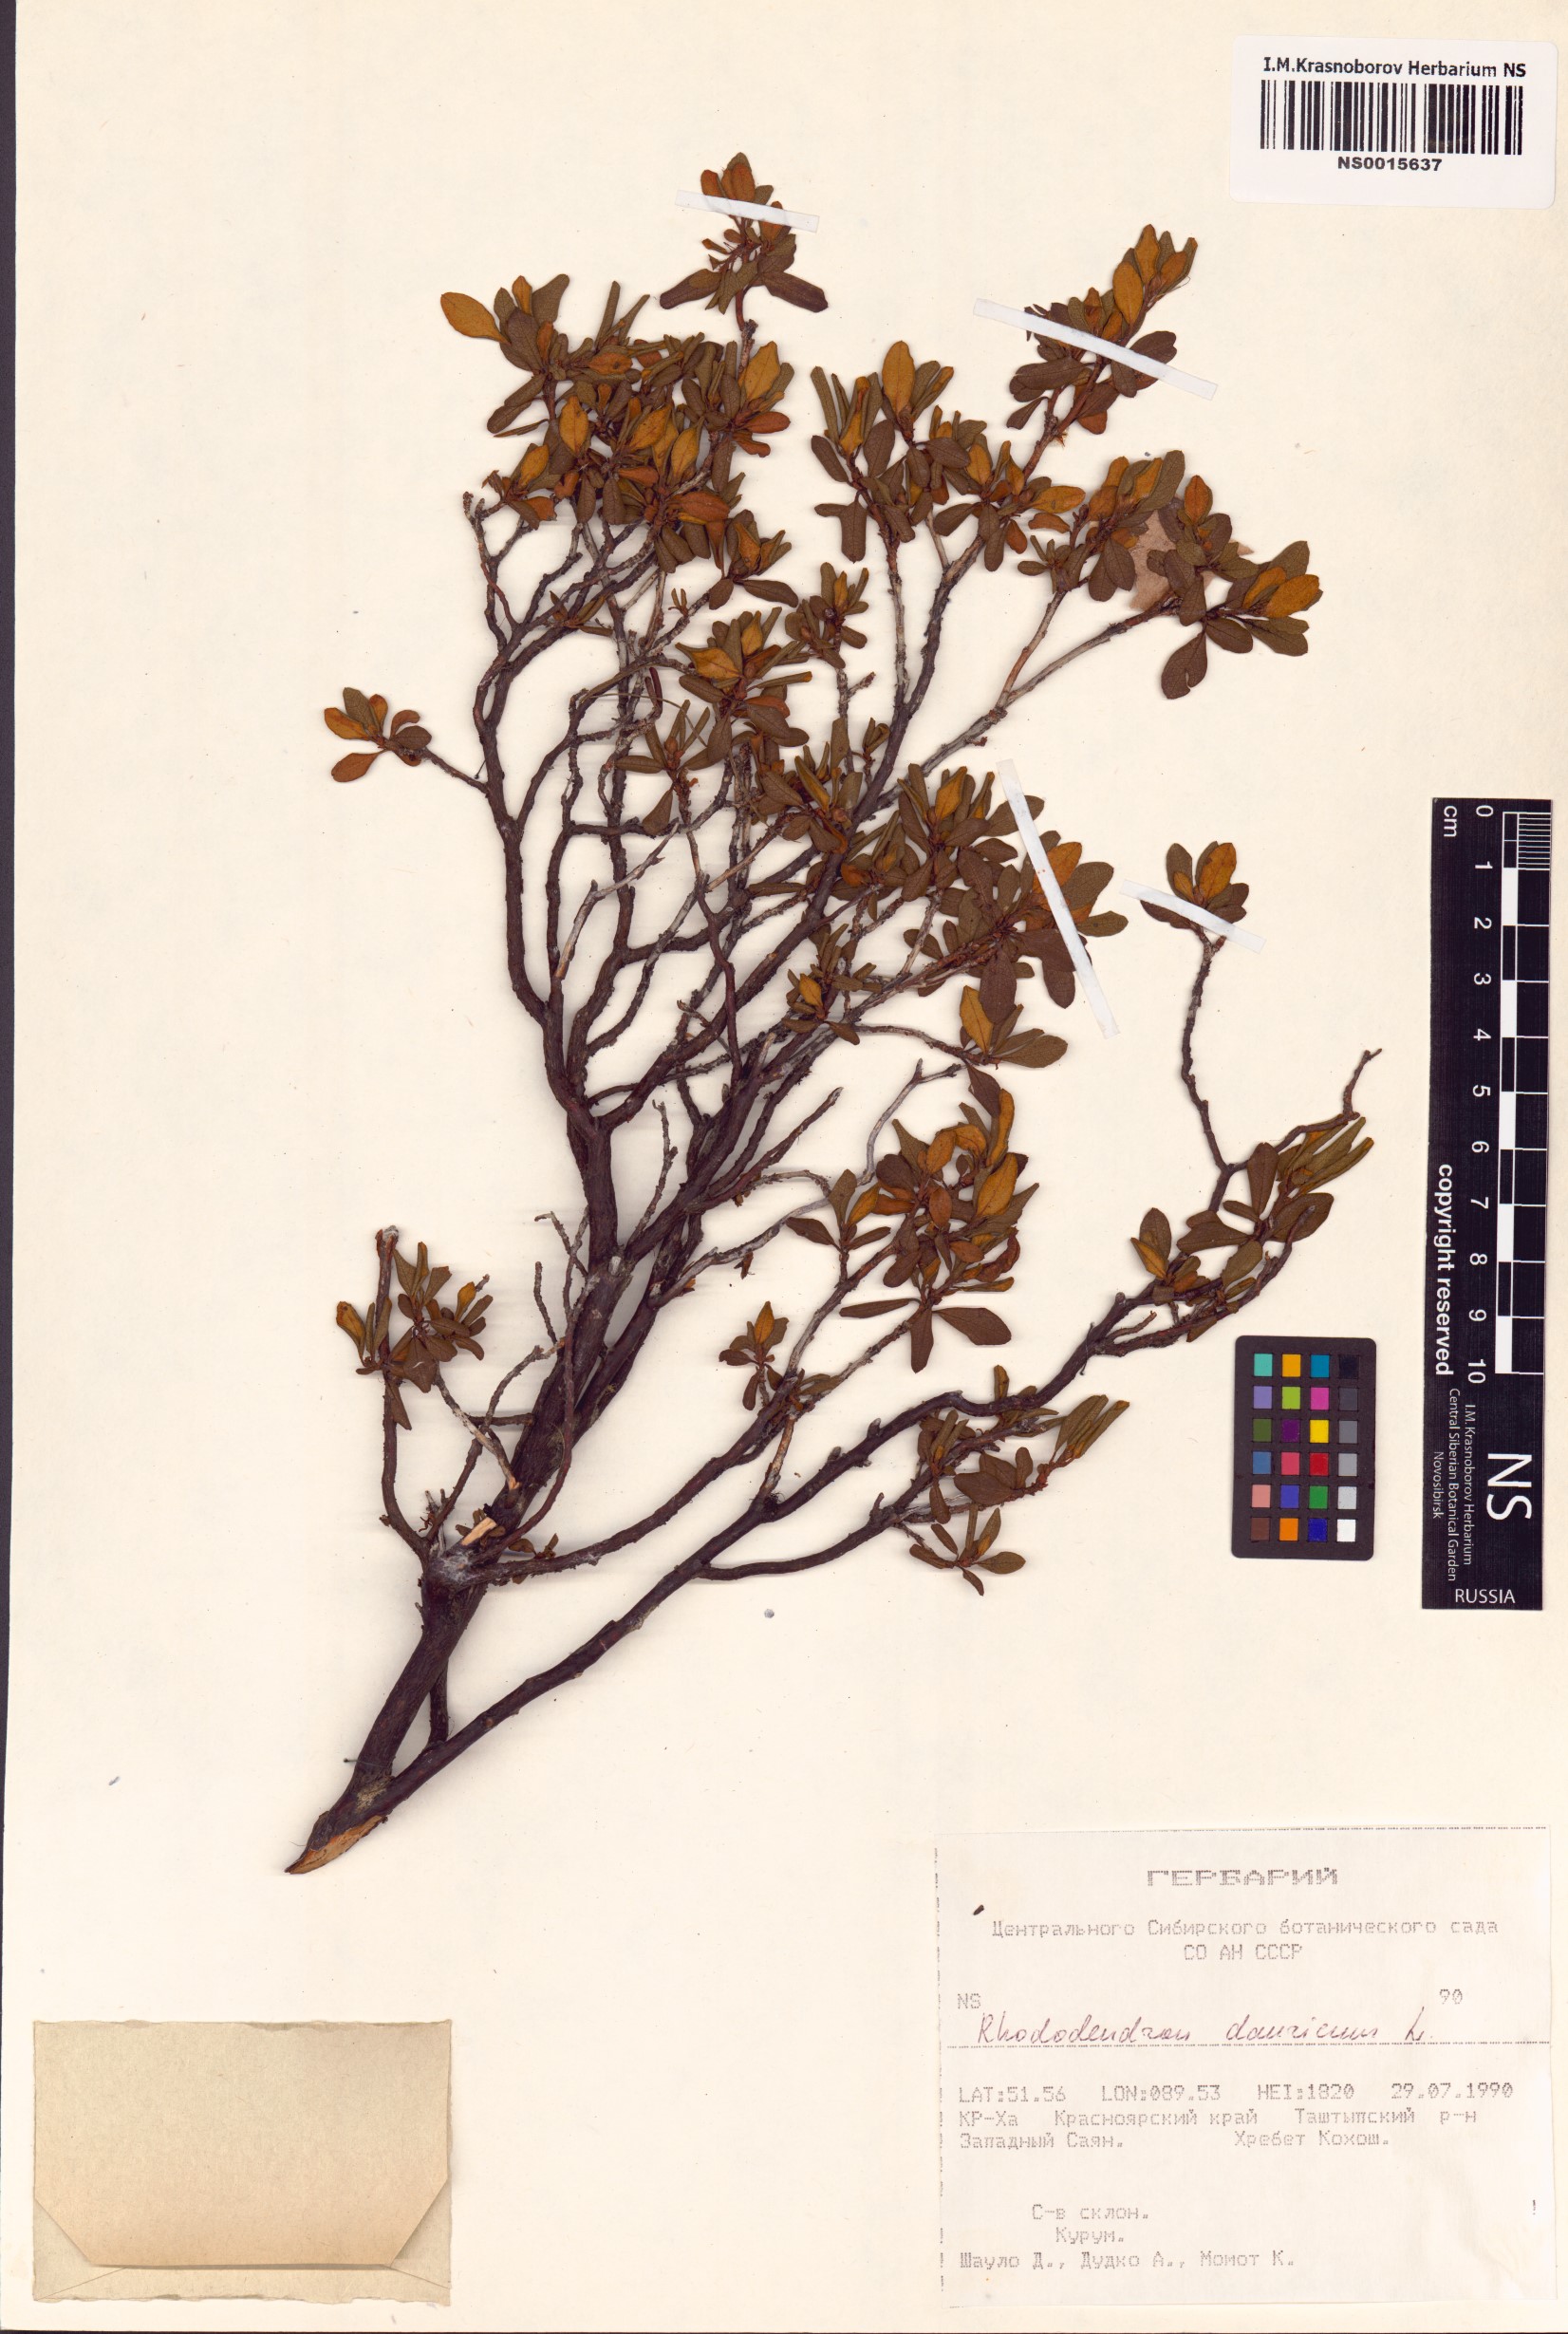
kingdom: Plantae
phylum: Tracheophyta
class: Magnoliopsida
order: Ericales
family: Ericaceae
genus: Rhododendron
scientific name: Rhododendron dauricum
